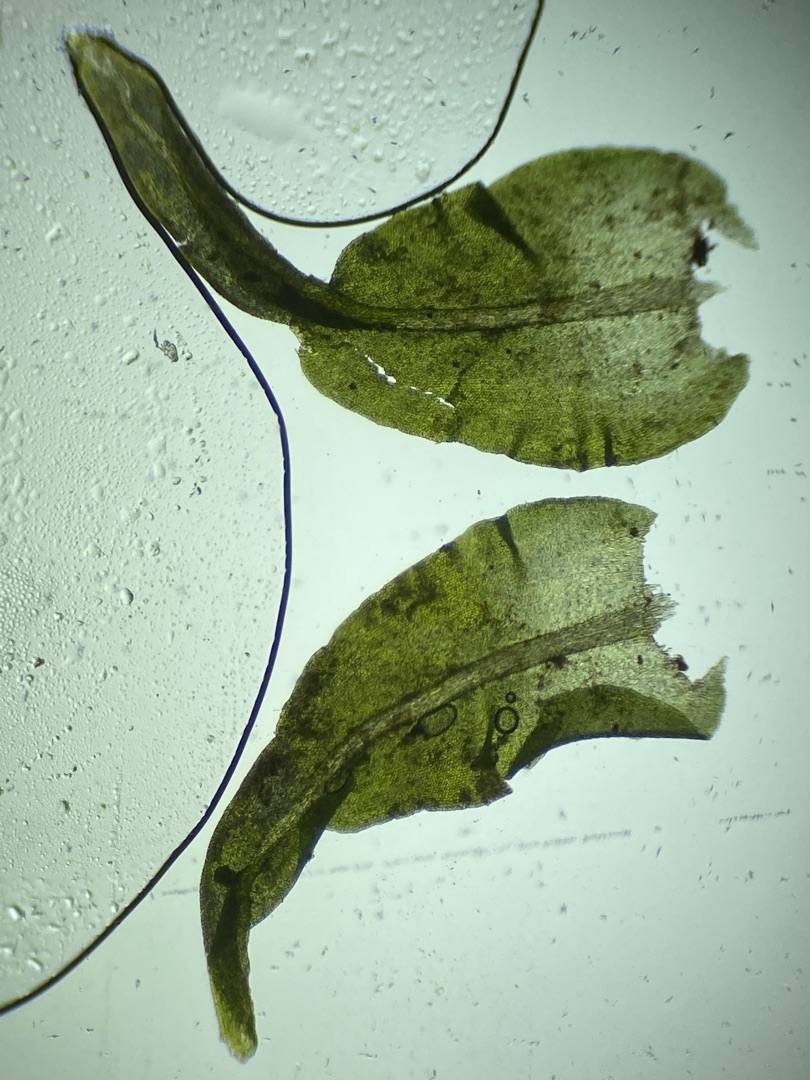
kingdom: Plantae
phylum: Bryophyta
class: Bryopsida
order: Hypnales
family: Anomodontaceae
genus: Anomodon
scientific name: Anomodon viticulosus
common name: Robust matblad
